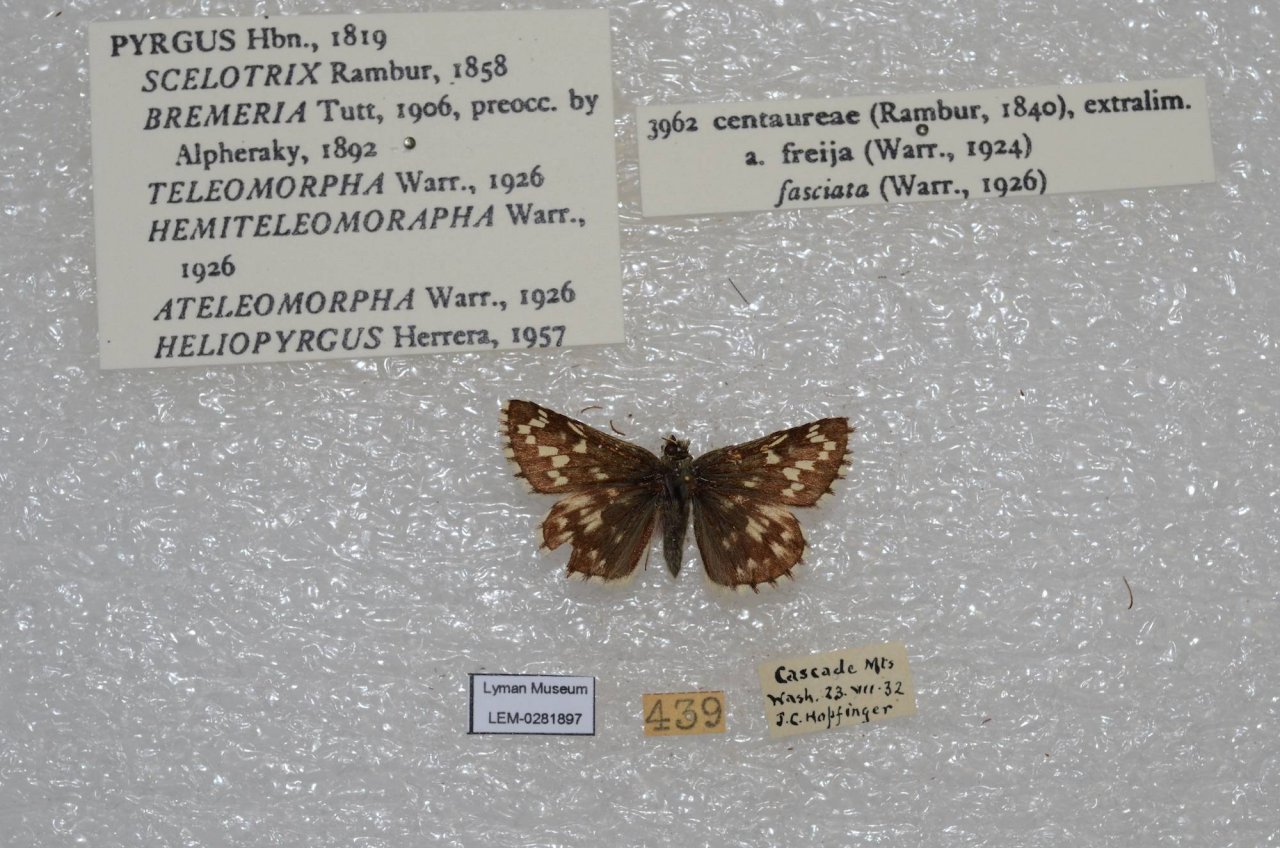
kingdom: Animalia
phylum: Arthropoda
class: Insecta
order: Lepidoptera
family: Hesperiidae
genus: Pyrgus
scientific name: Pyrgus centaureae
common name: Grizzled Skipper
